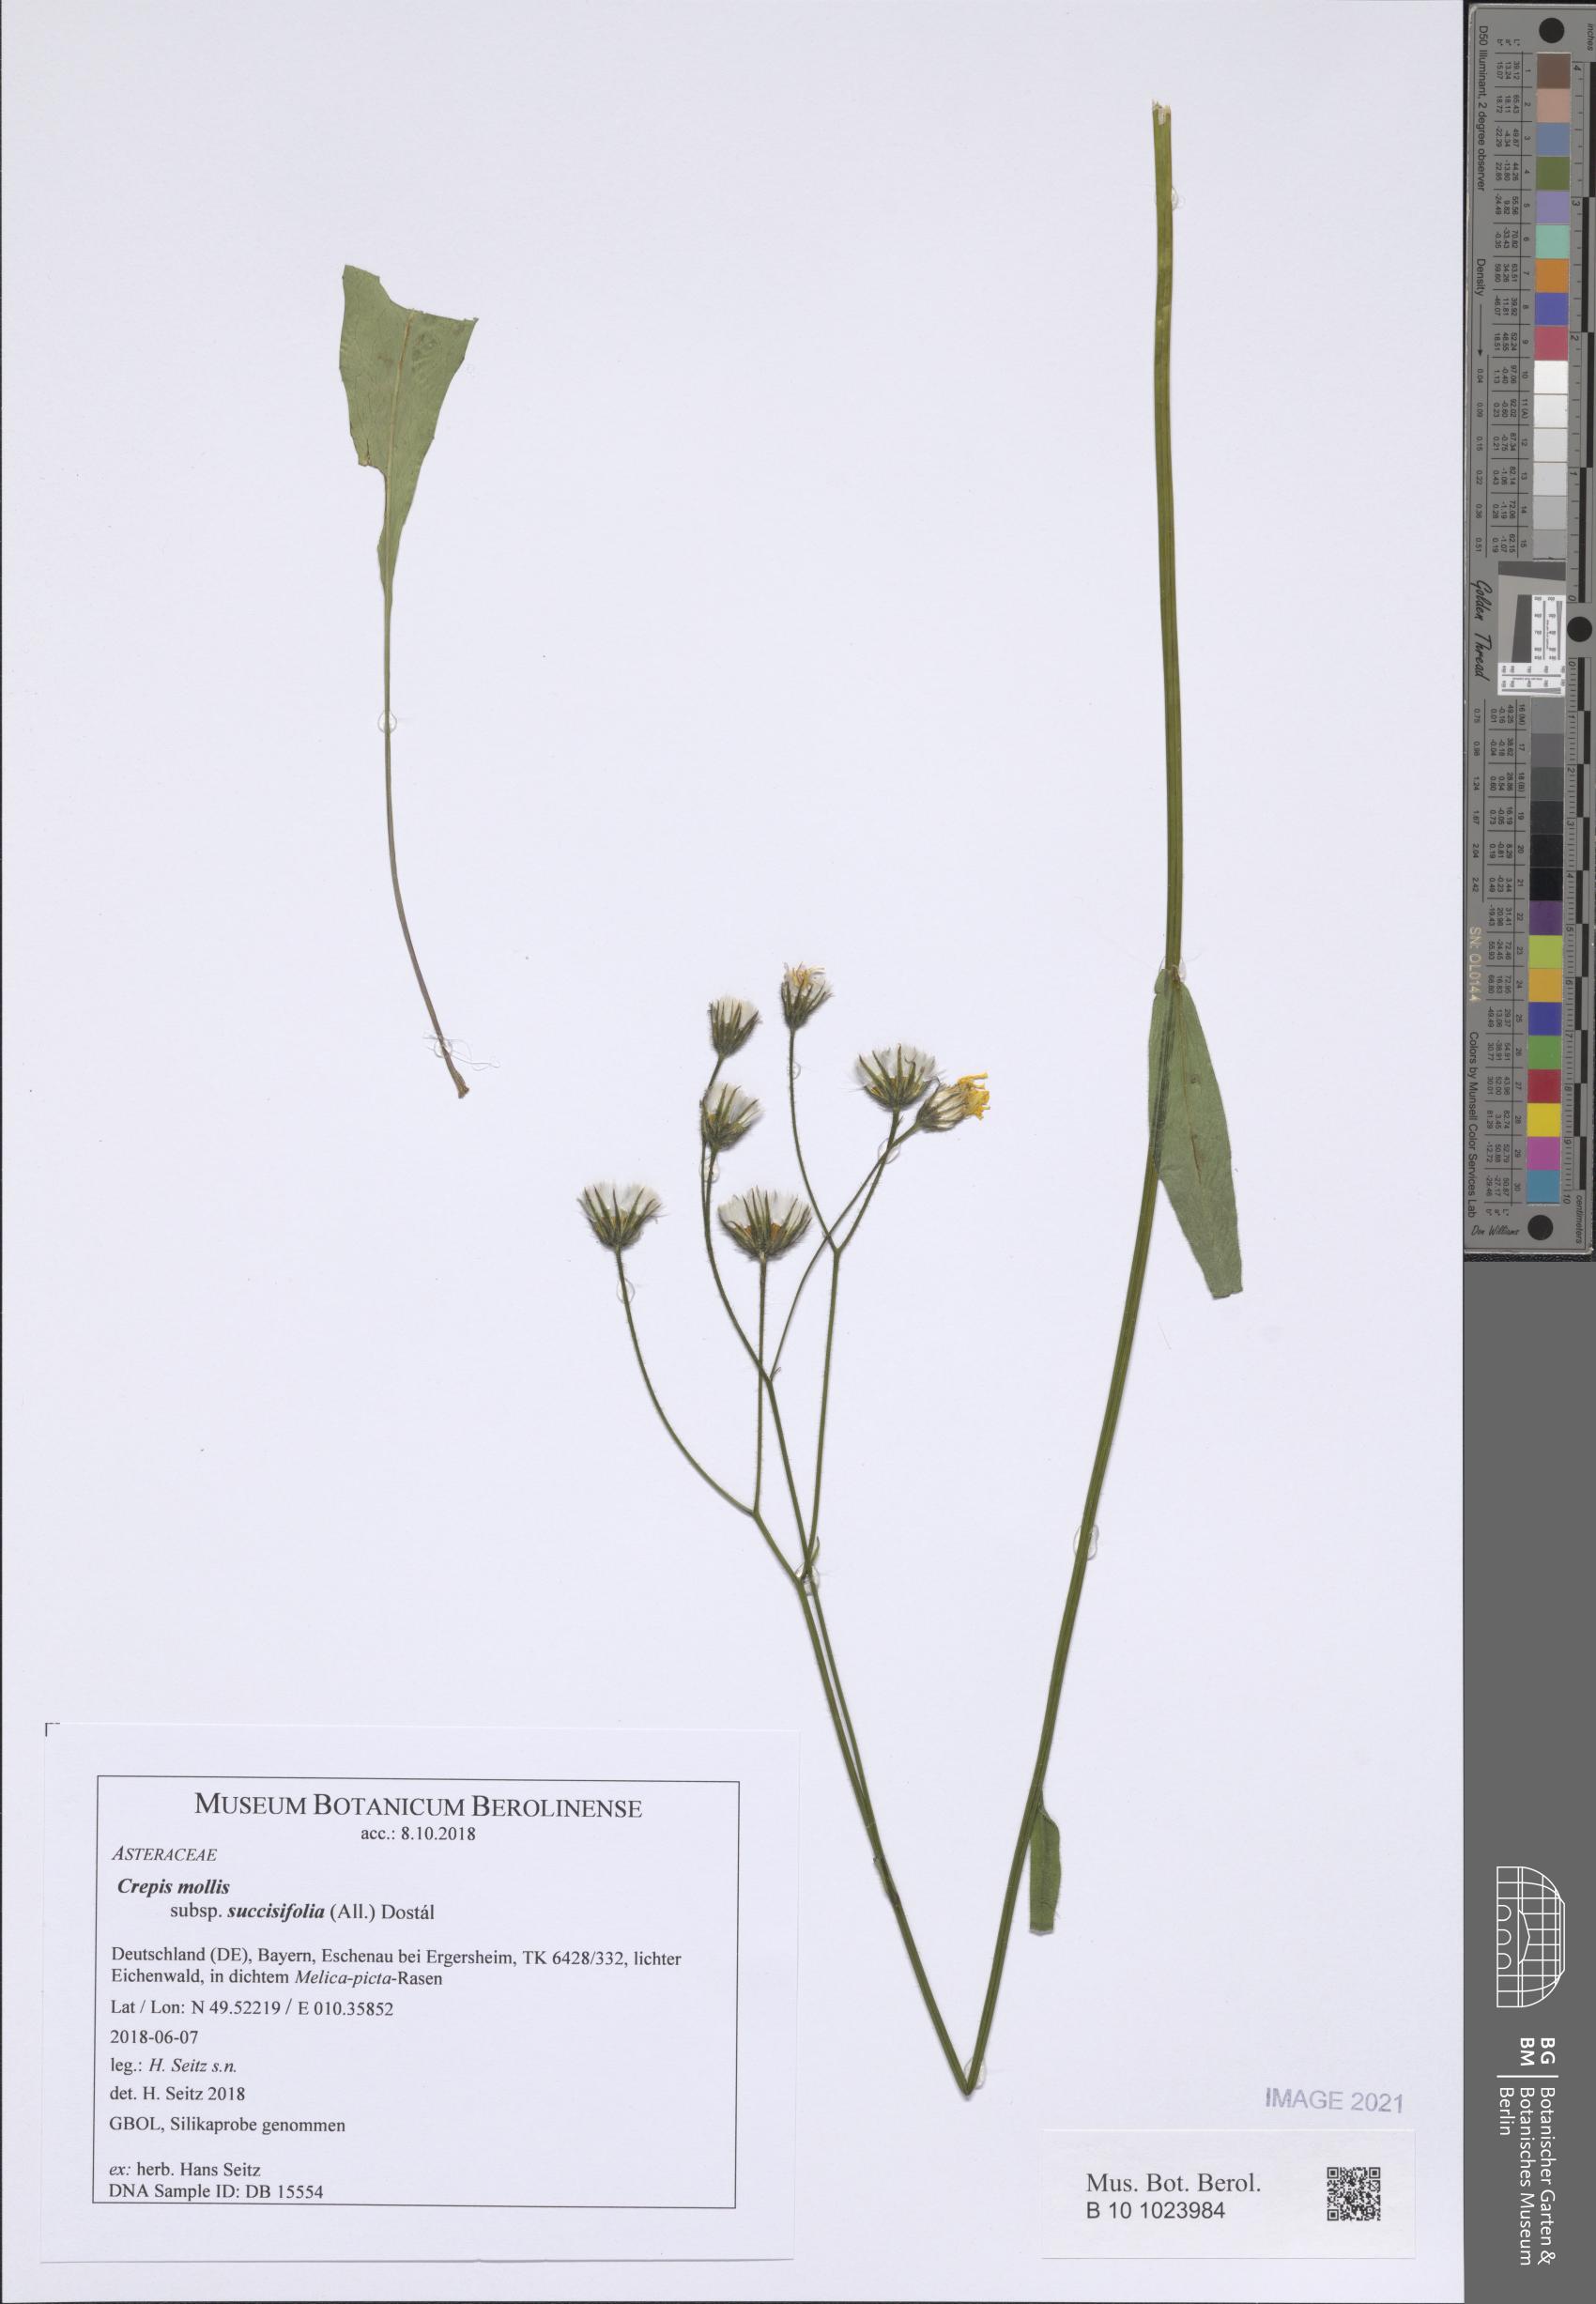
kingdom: Plantae
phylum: Tracheophyta
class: Magnoliopsida
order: Asterales
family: Asteraceae
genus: Crepis
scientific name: Crepis mollis
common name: Northern hawk's-beard
